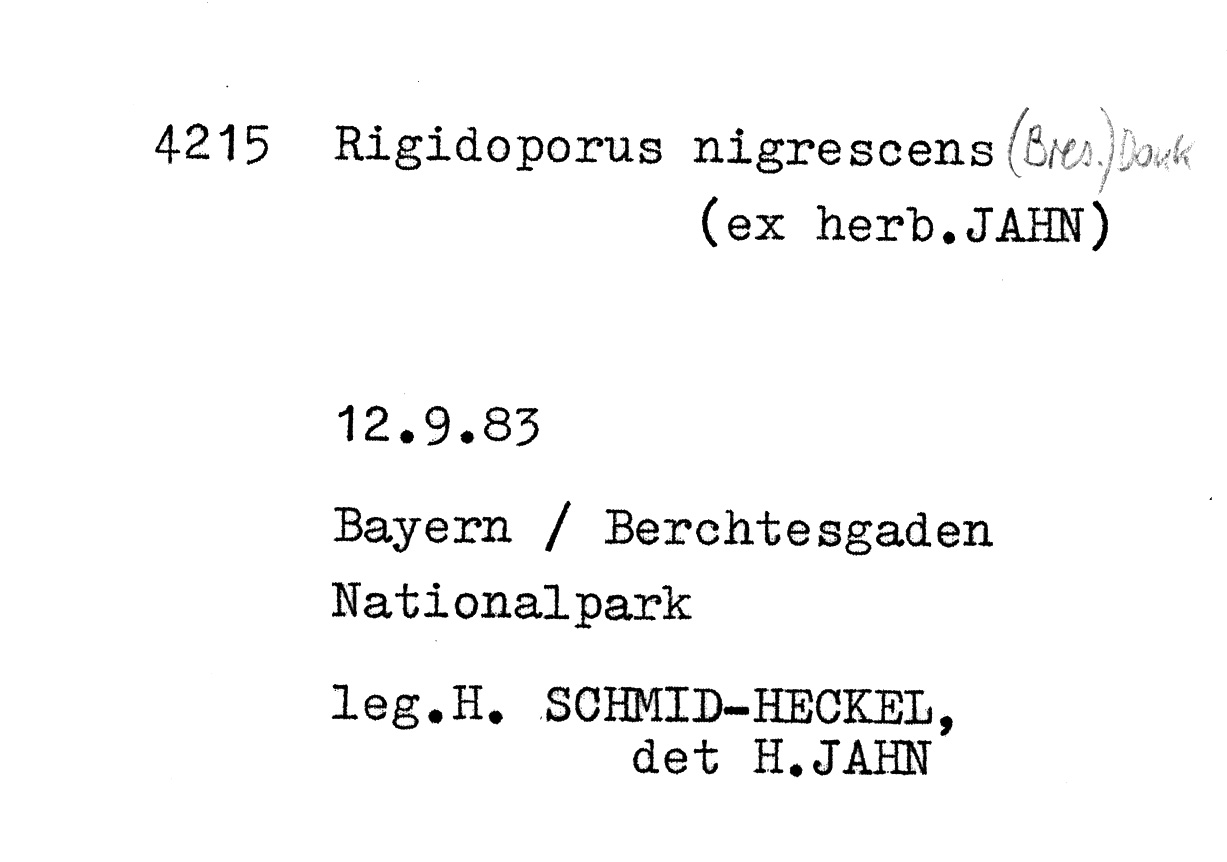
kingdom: Fungi
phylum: Basidiomycota
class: Agaricomycetes
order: Polyporales
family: Meripilaceae
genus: Rigidoporus
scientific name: Rigidoporus crocatus
